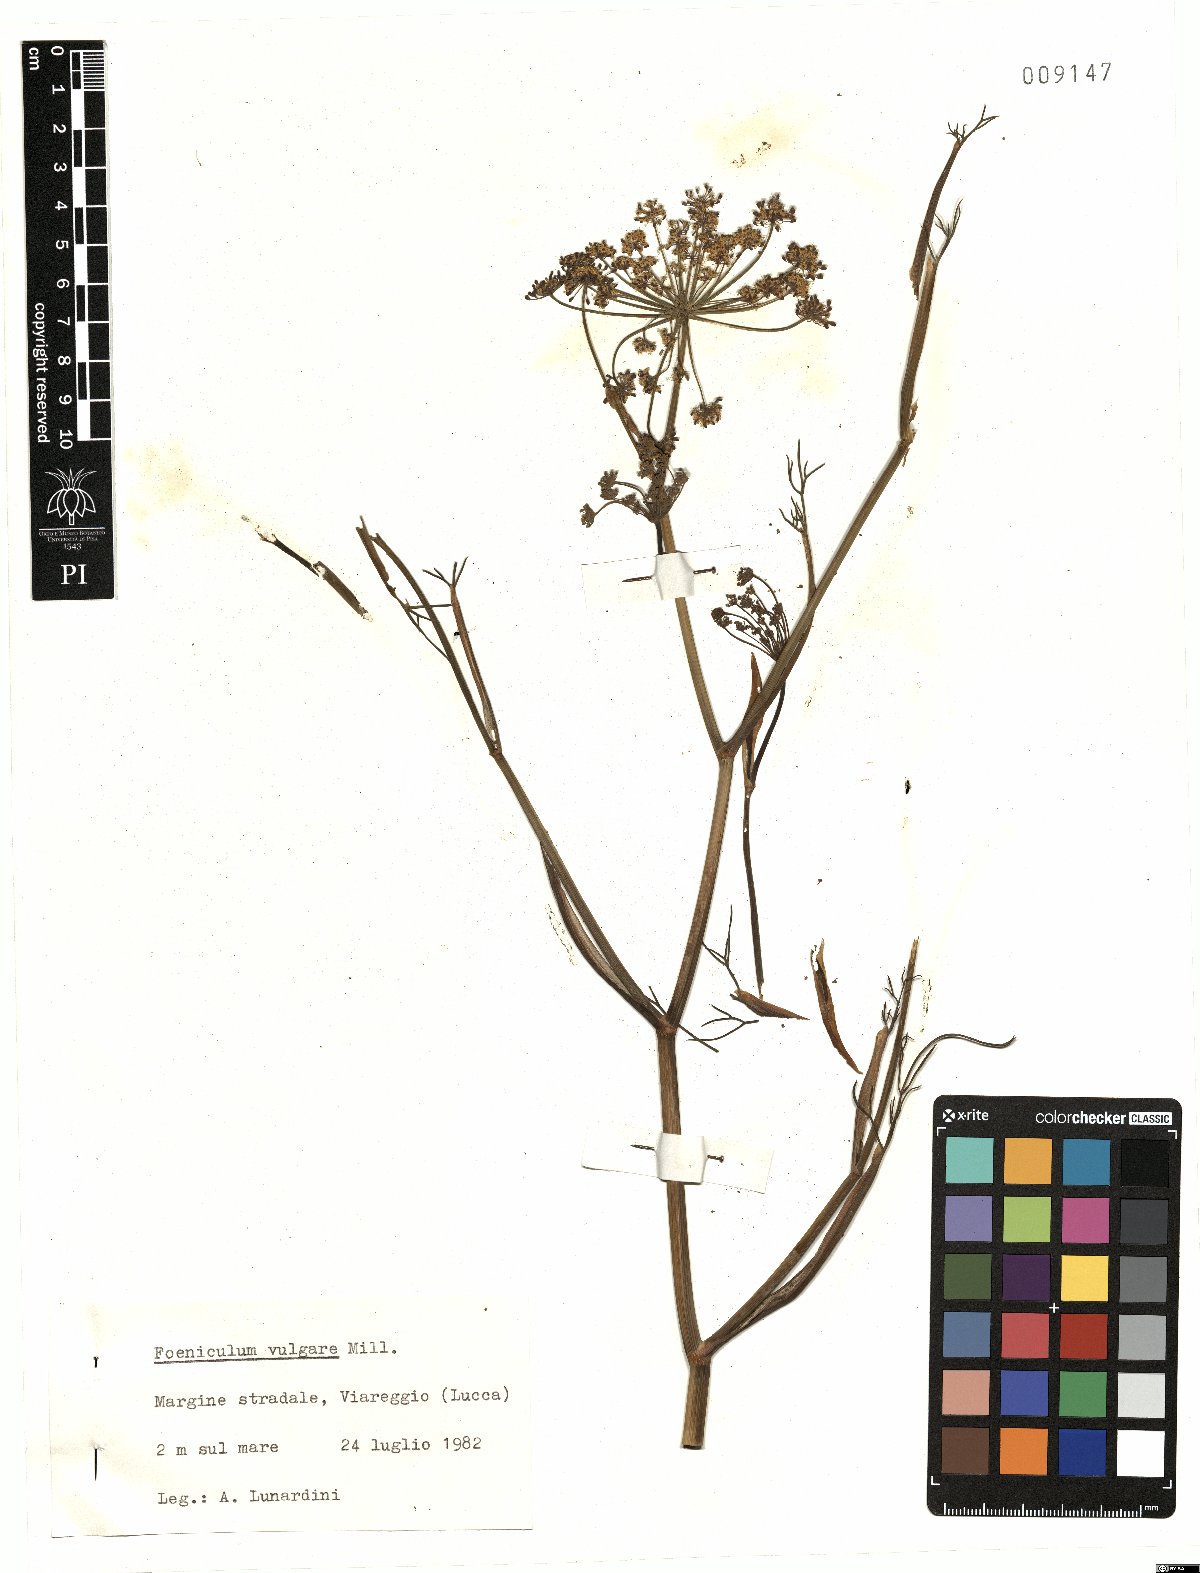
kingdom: Plantae
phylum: Tracheophyta
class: Magnoliopsida
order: Apiales
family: Apiaceae
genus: Foeniculum
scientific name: Foeniculum vulgare
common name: Fennel
